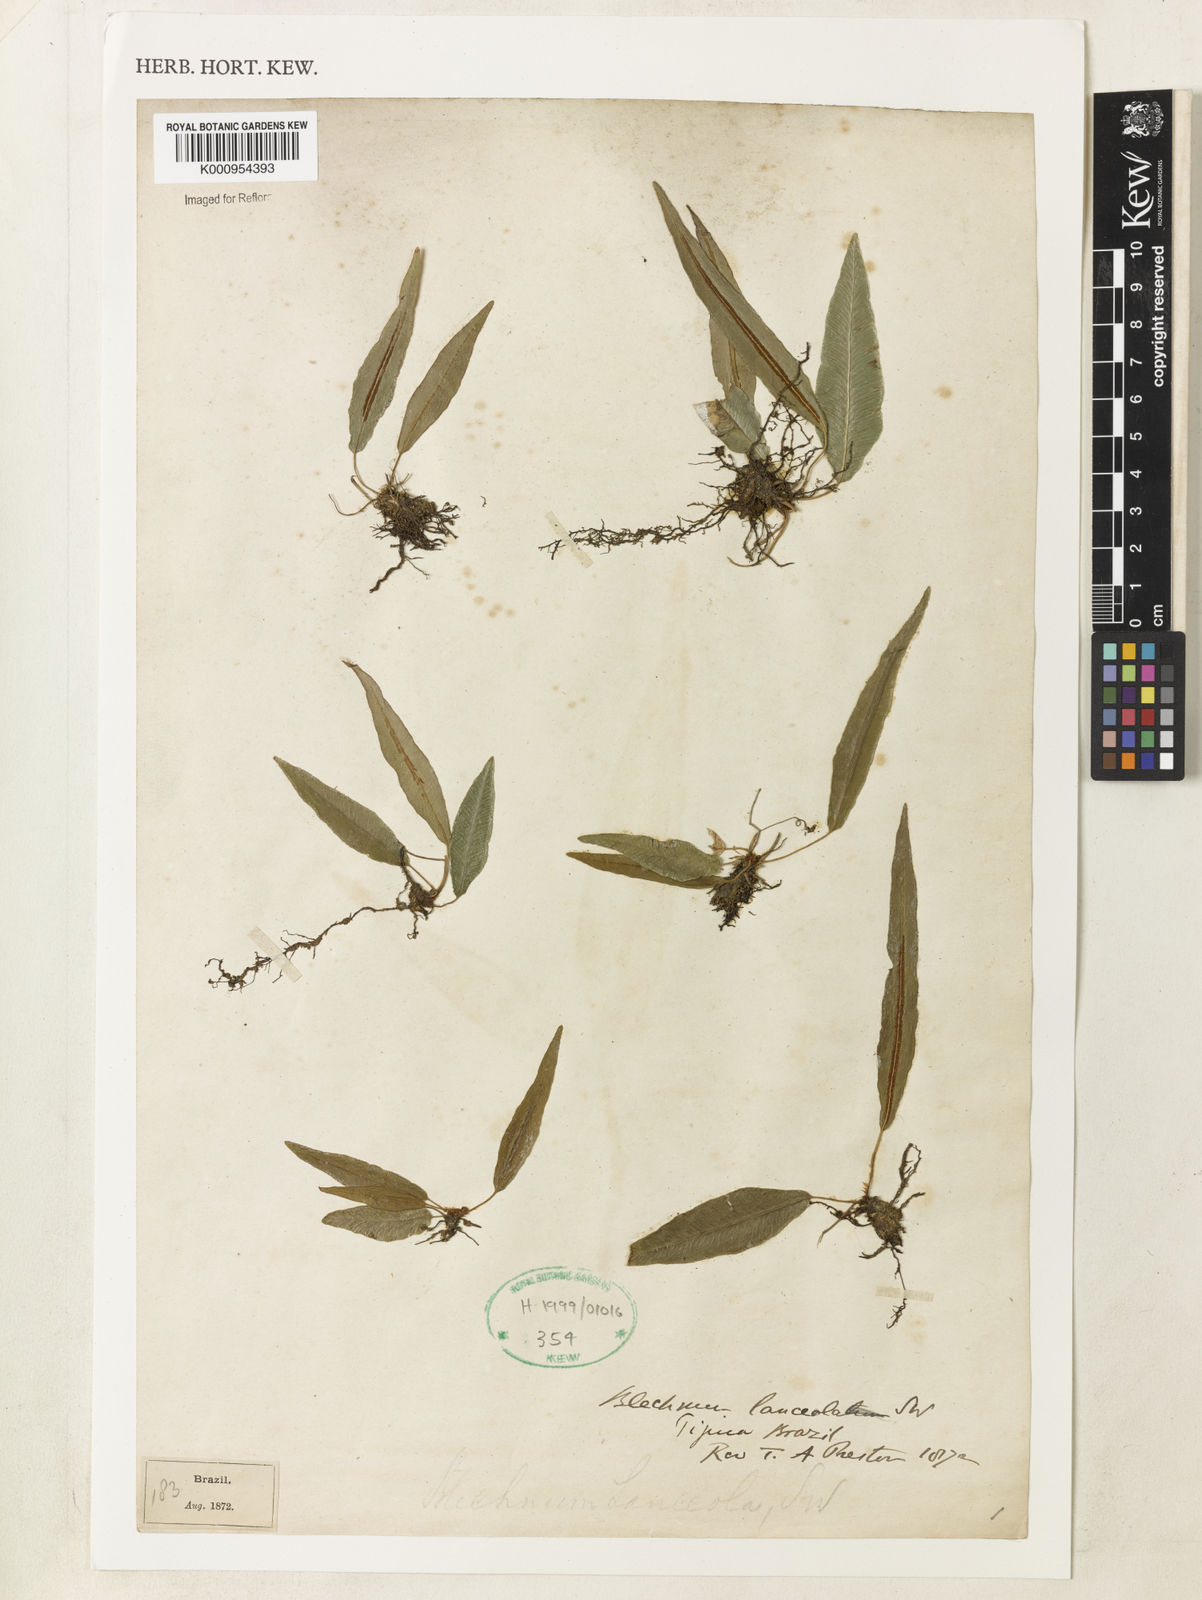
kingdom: Plantae
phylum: Tracheophyta
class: Polypodiopsida
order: Polypodiales
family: Blechnaceae
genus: Blechnum
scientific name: Blechnum lanceola
